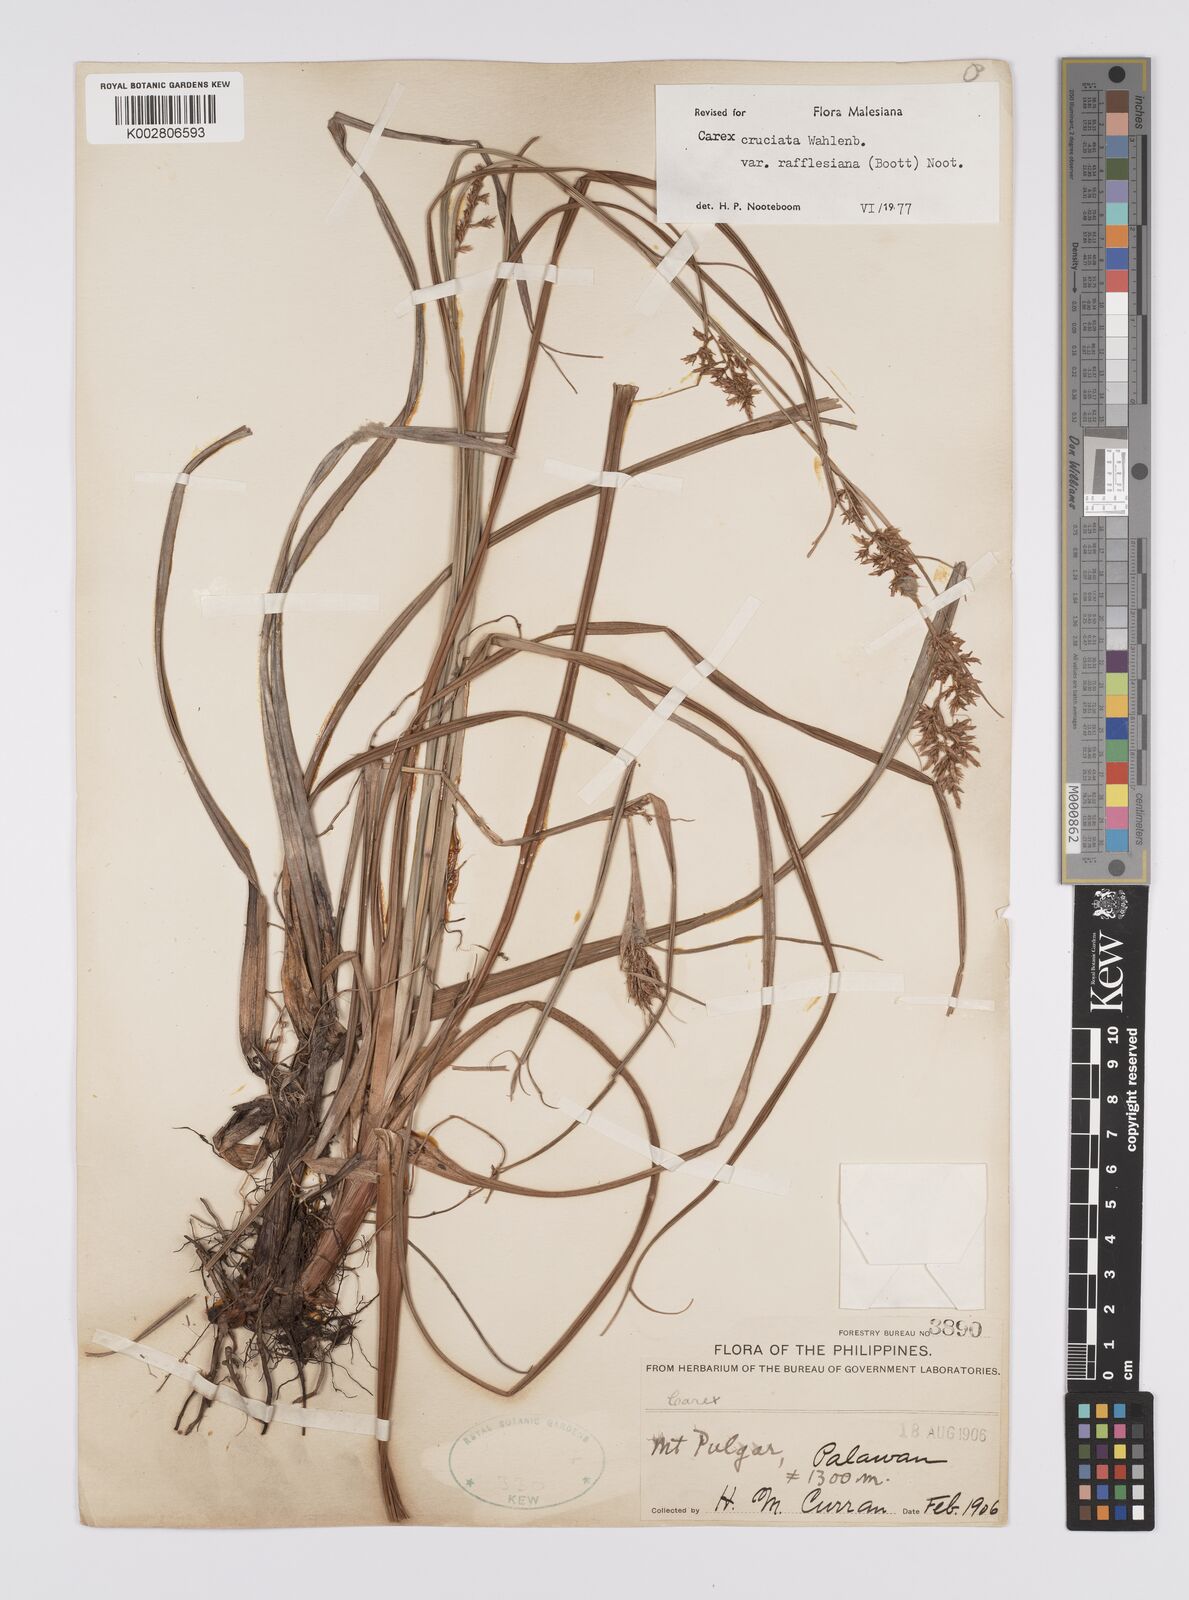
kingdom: Plantae
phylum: Tracheophyta
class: Liliopsida
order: Poales
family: Cyperaceae
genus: Carex
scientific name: Carex rafflesiana
